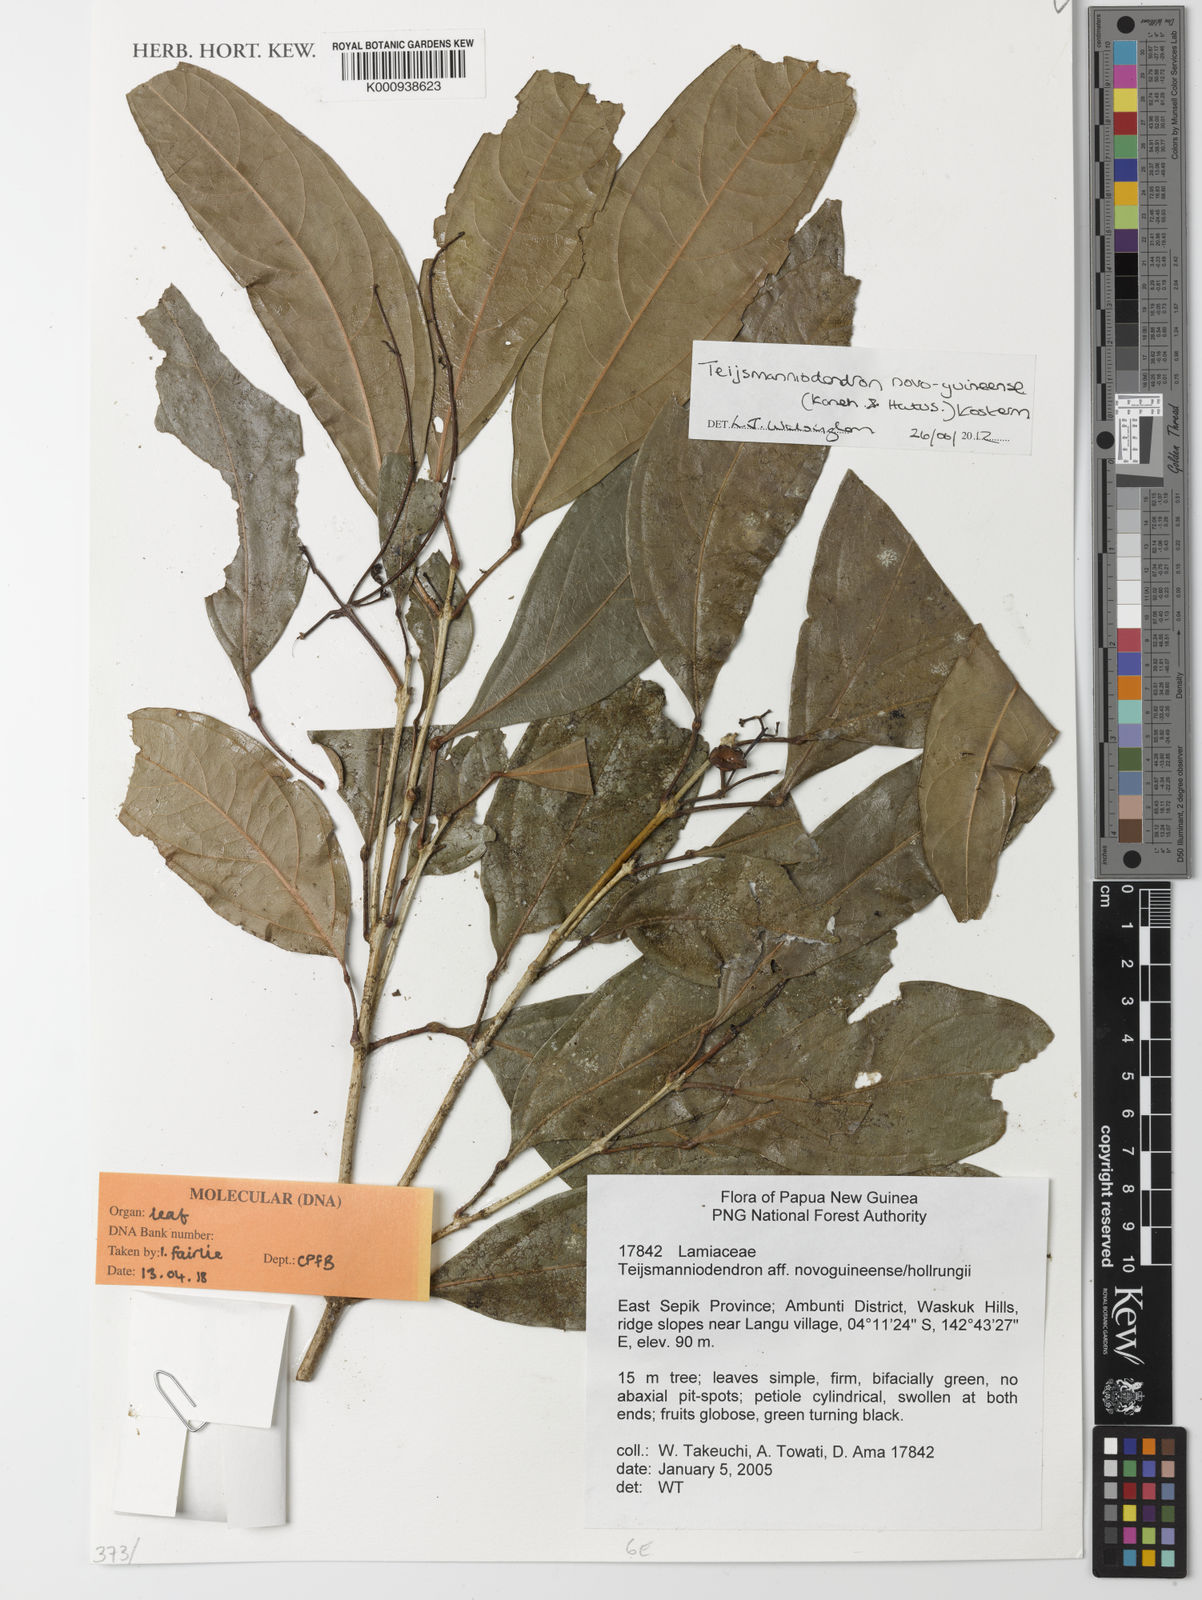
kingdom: Plantae
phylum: Tracheophyta
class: Magnoliopsida
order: Lamiales
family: Lamiaceae
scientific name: Lamiaceae
